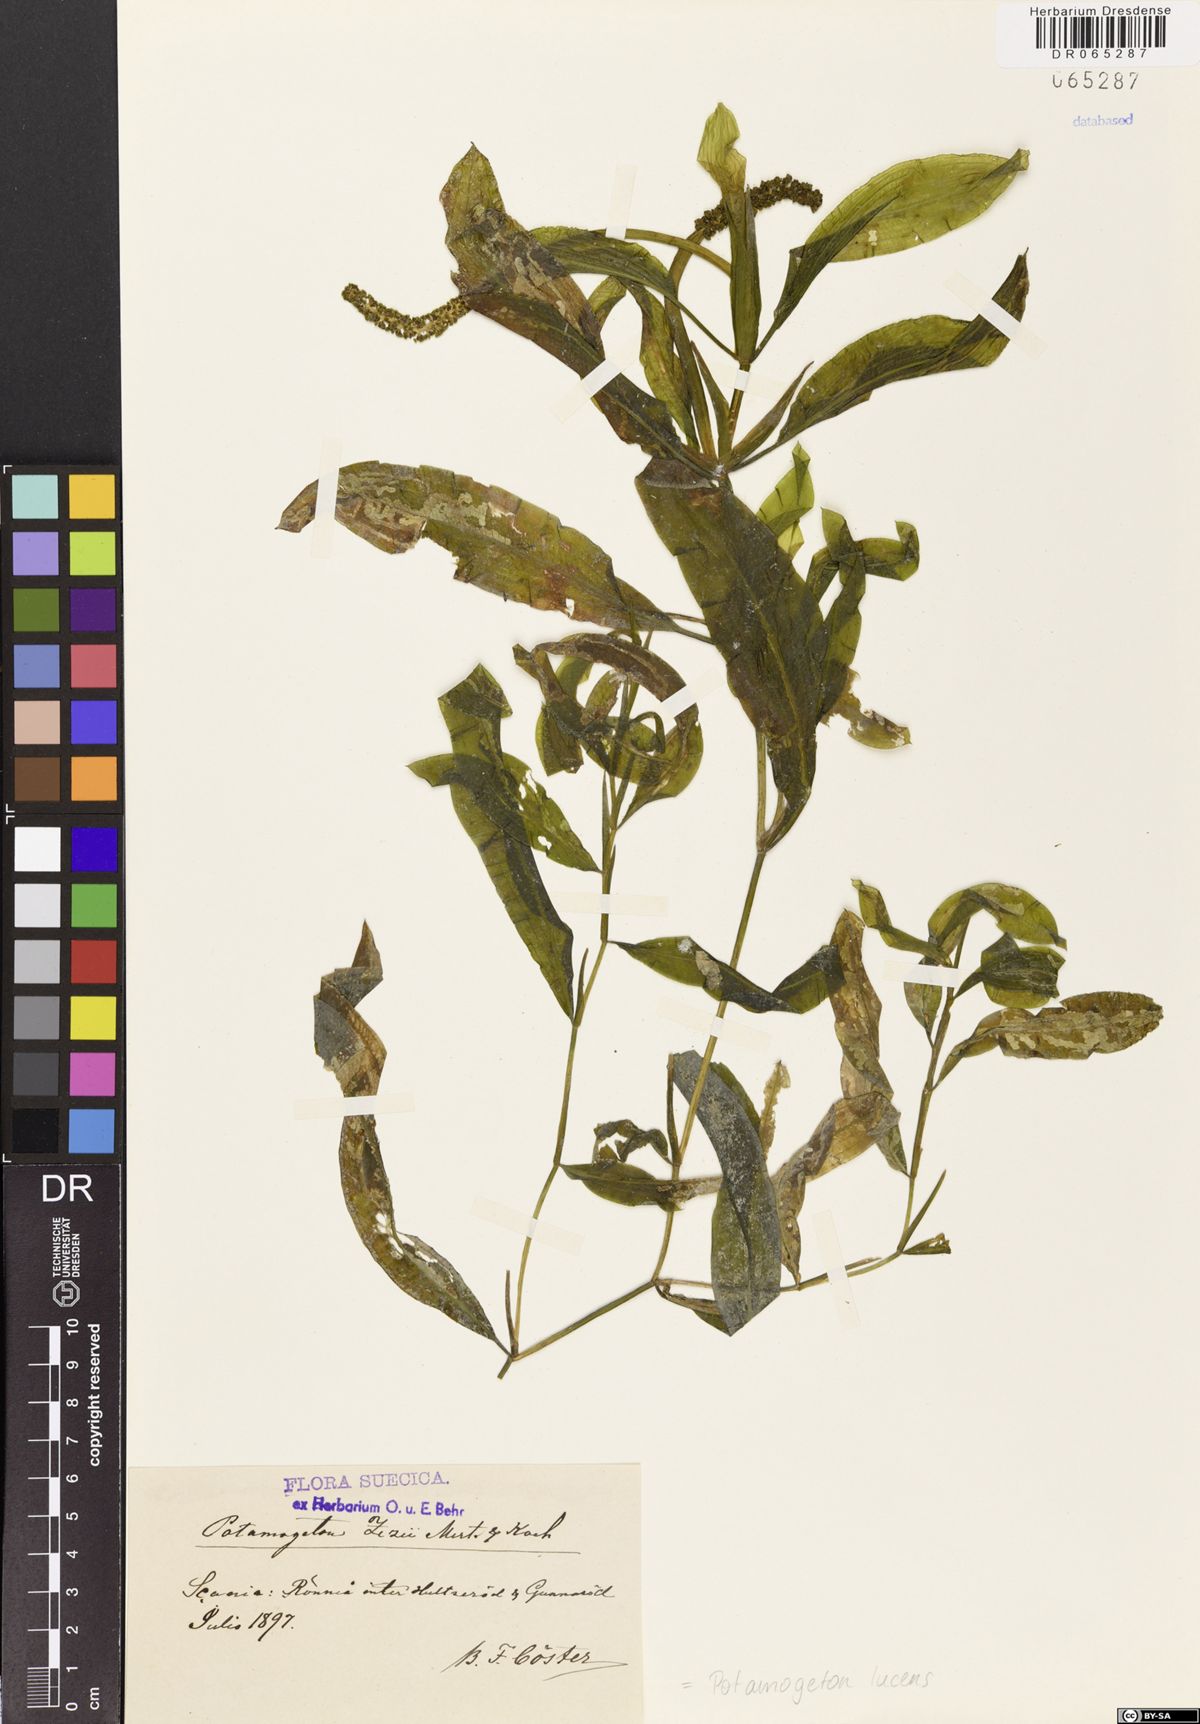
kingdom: Plantae
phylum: Tracheophyta
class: Liliopsida
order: Alismatales
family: Potamogetonaceae
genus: Potamogeton
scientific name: Potamogeton lucens
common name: Shining pondweed
